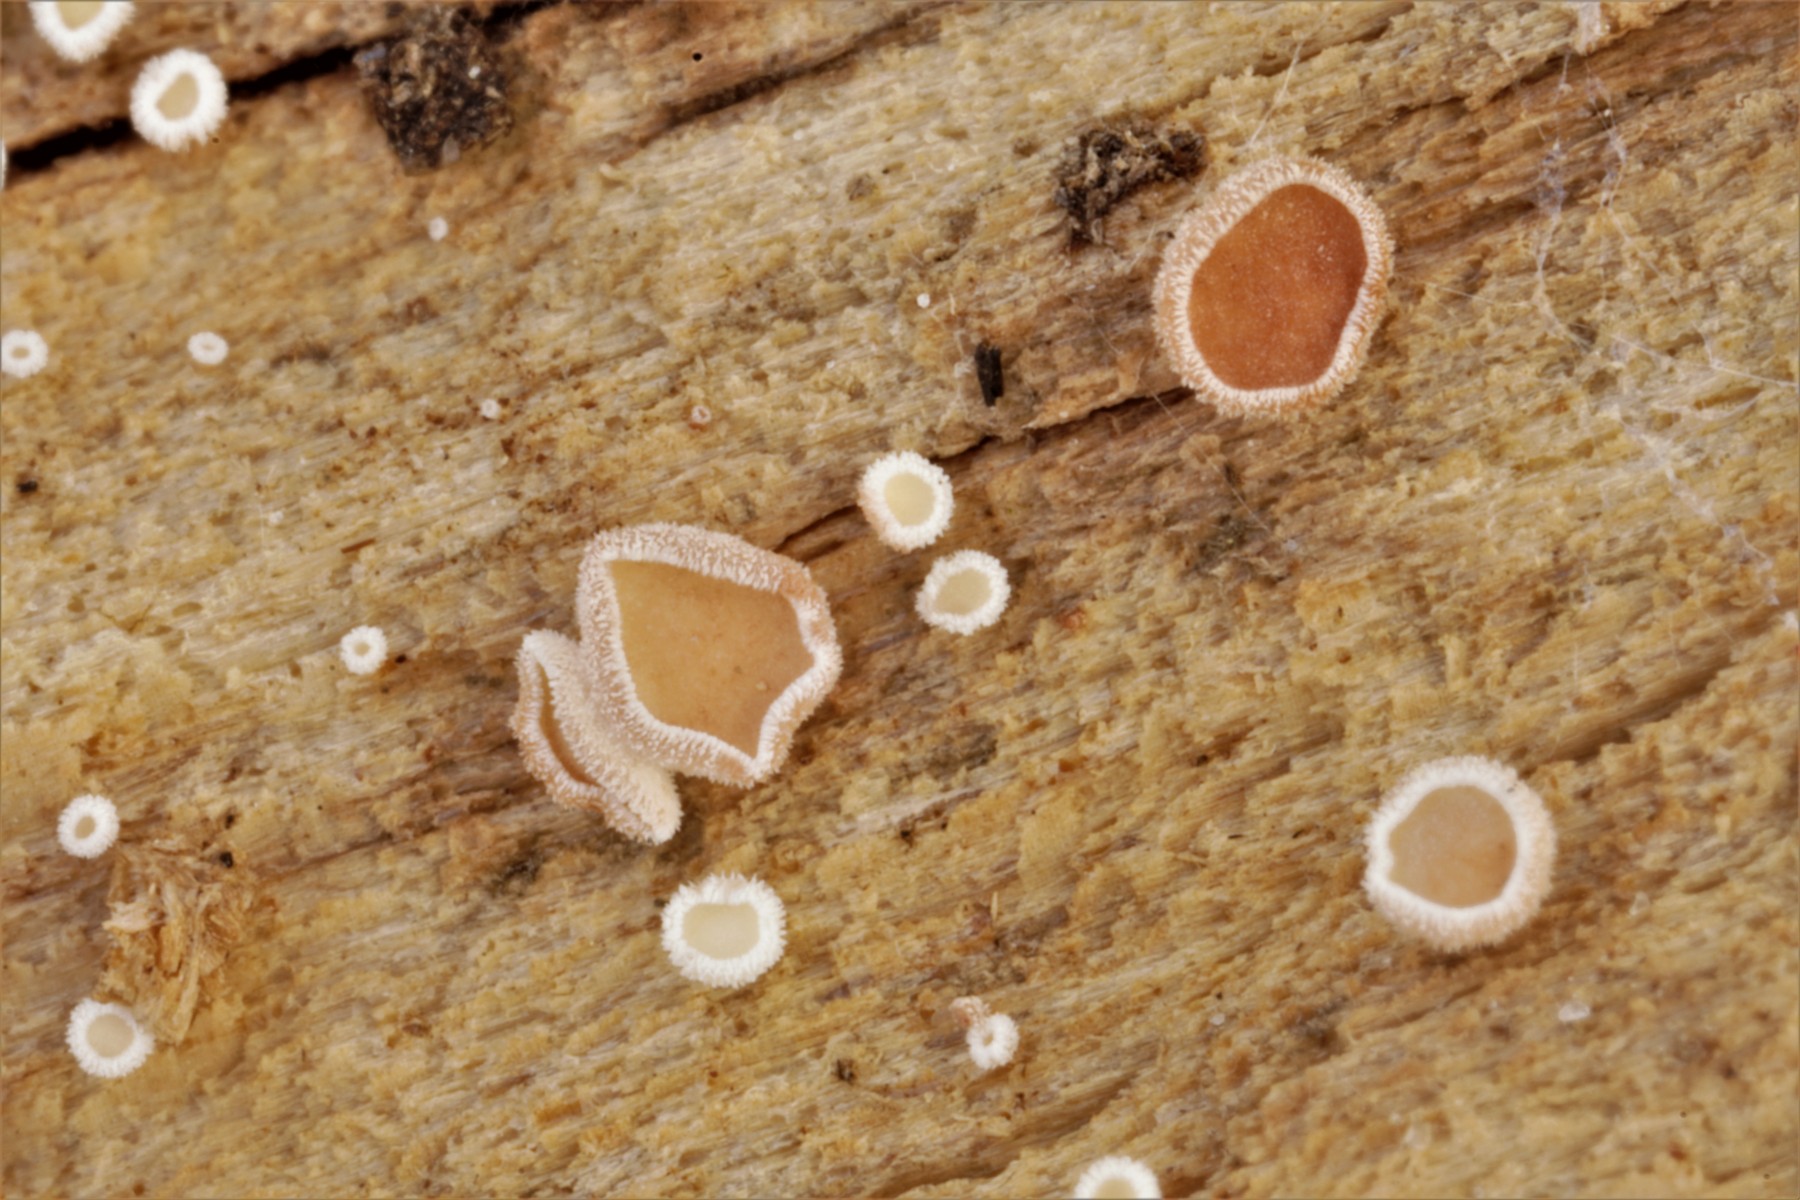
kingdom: Fungi
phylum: Ascomycota
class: Leotiomycetes
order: Helotiales
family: Lachnaceae
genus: Lachnum
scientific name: Lachnum brevipilosum
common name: korthåret frynseskive
